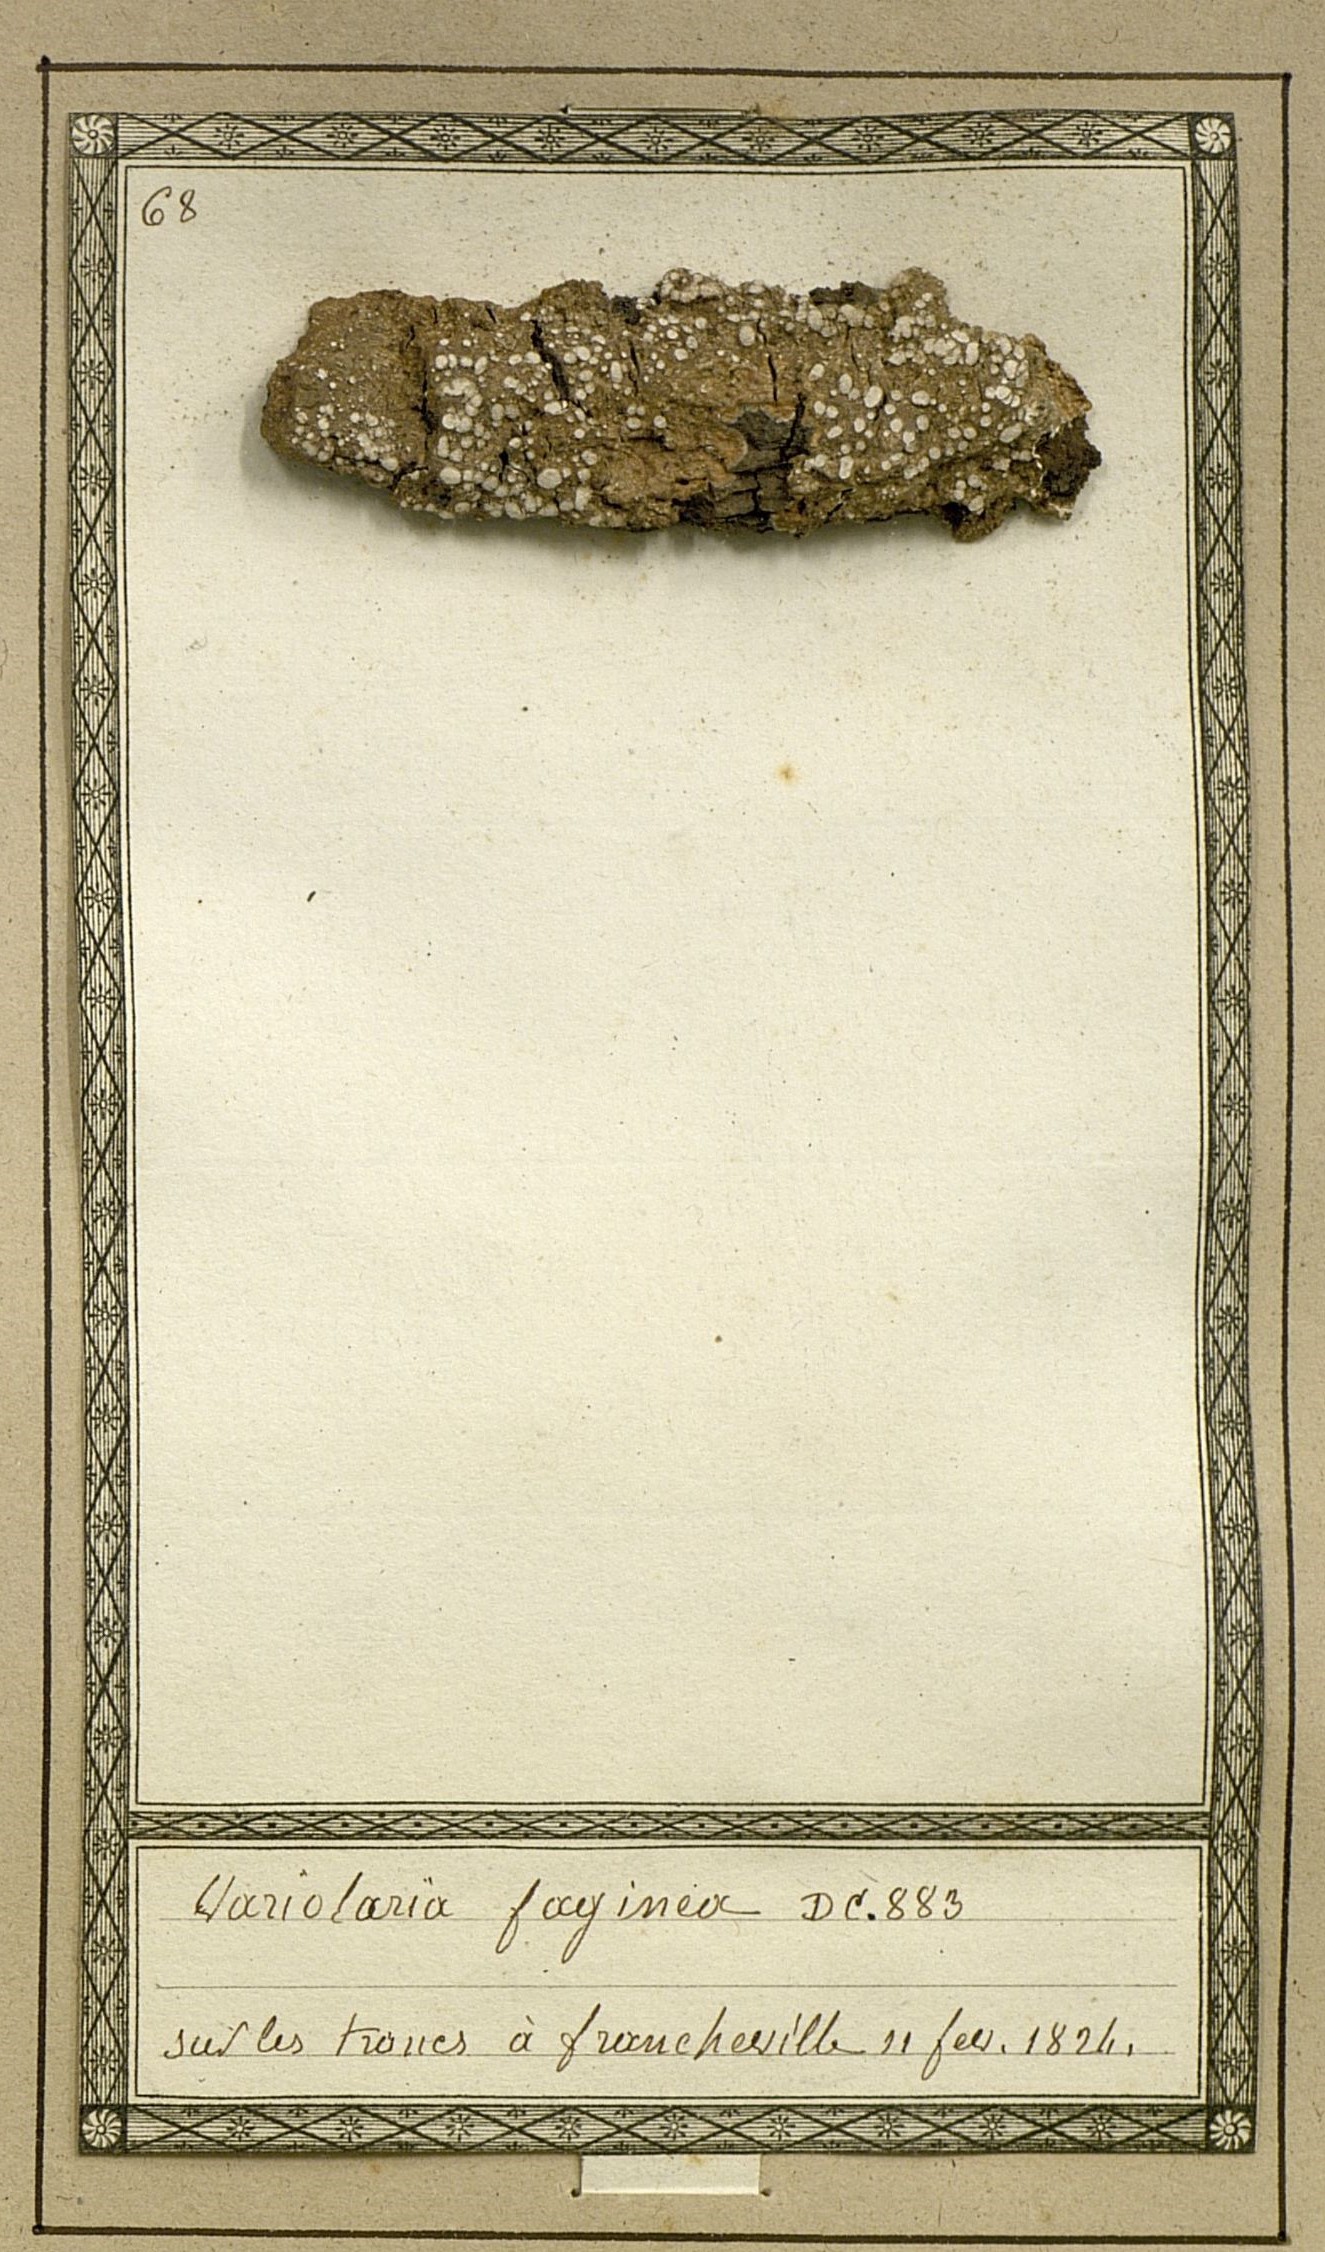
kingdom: Fungi
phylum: Ascomycota
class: Lecanoromycetes
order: Pertusariales
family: Pertusariaceae
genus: Lepra
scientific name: Lepra amara
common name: Bitter wart lichen
